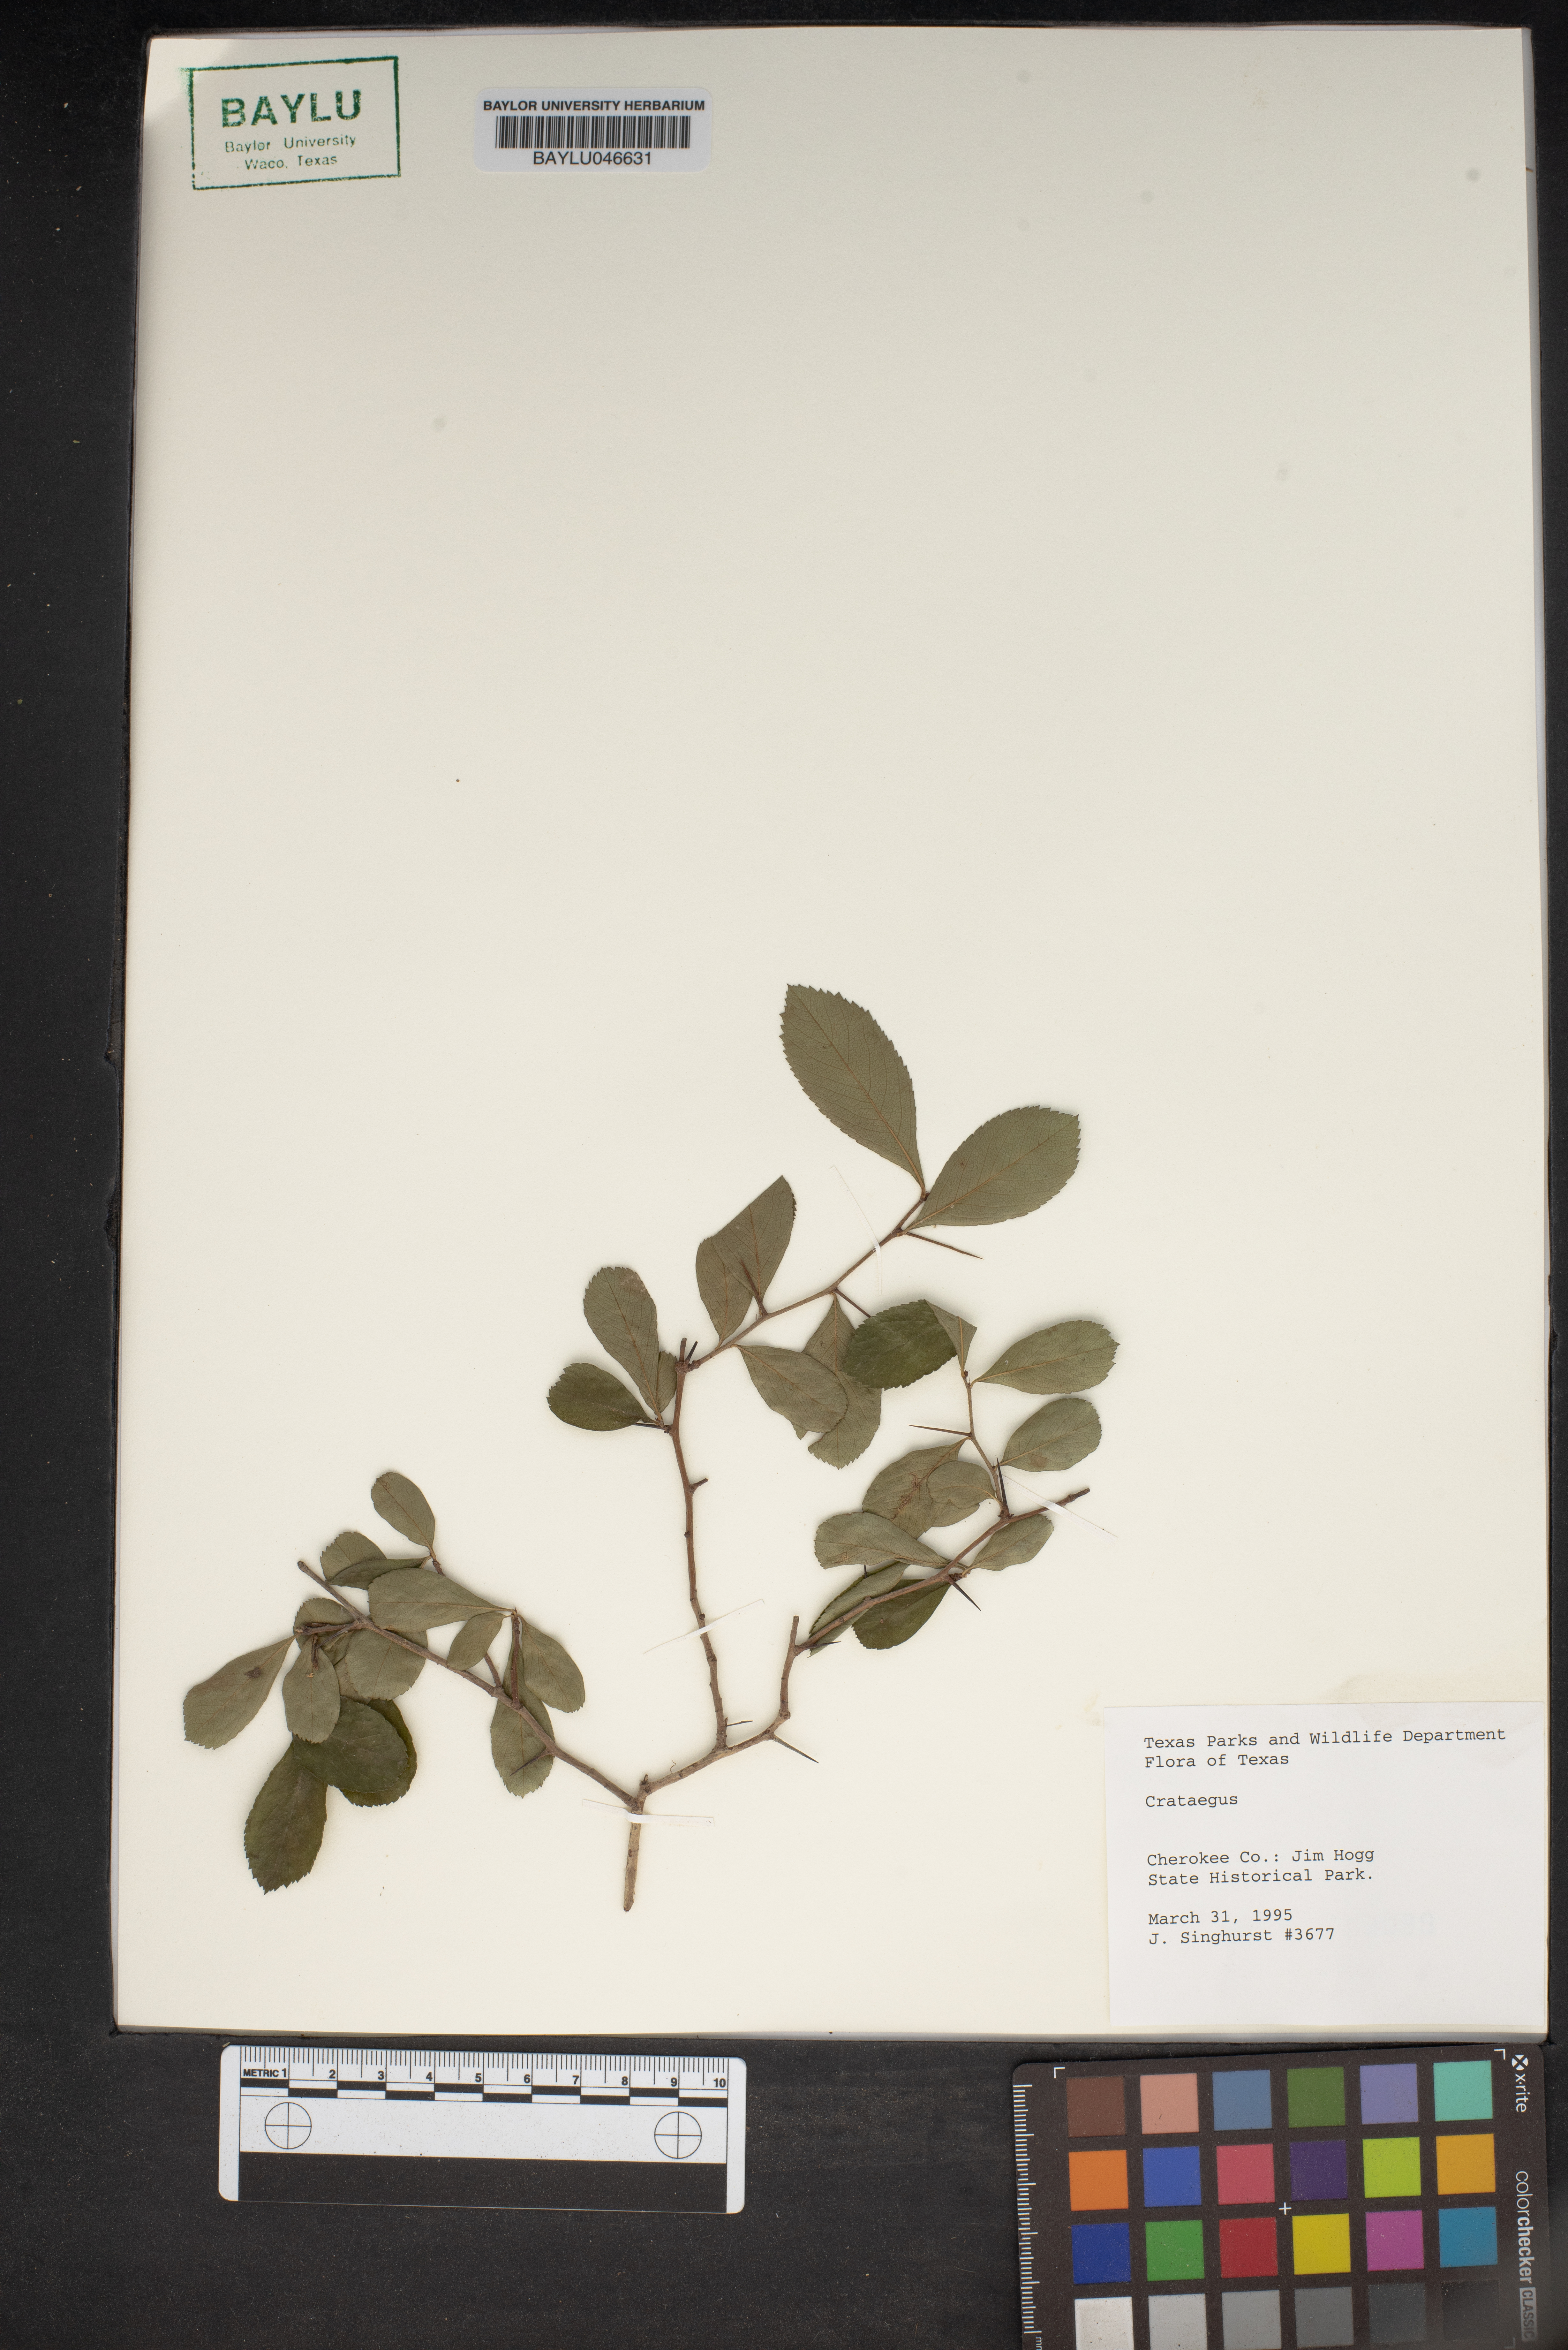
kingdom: Plantae
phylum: Tracheophyta
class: Magnoliopsida
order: Rosales
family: Rosaceae
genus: Crataegus
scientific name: Crataegus
